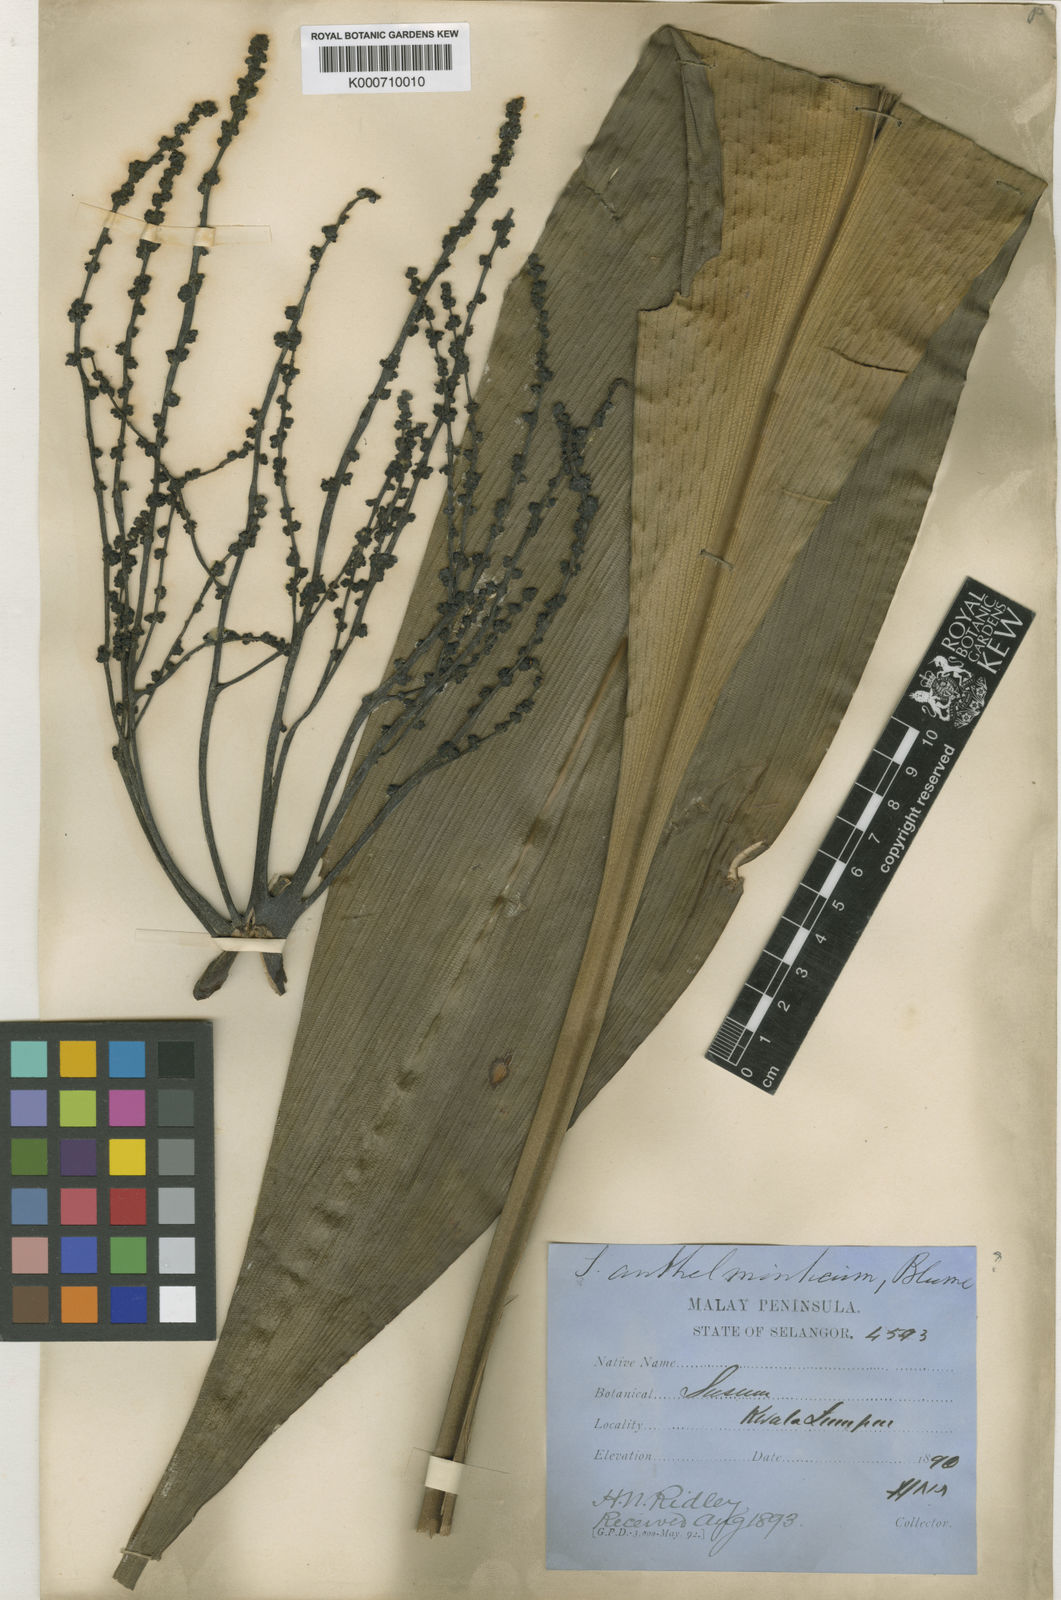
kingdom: Plantae
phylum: Tracheophyta
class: Liliopsida
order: Commelinales
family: Hanguanaceae
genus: Hanguana
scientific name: Hanguana malayana
